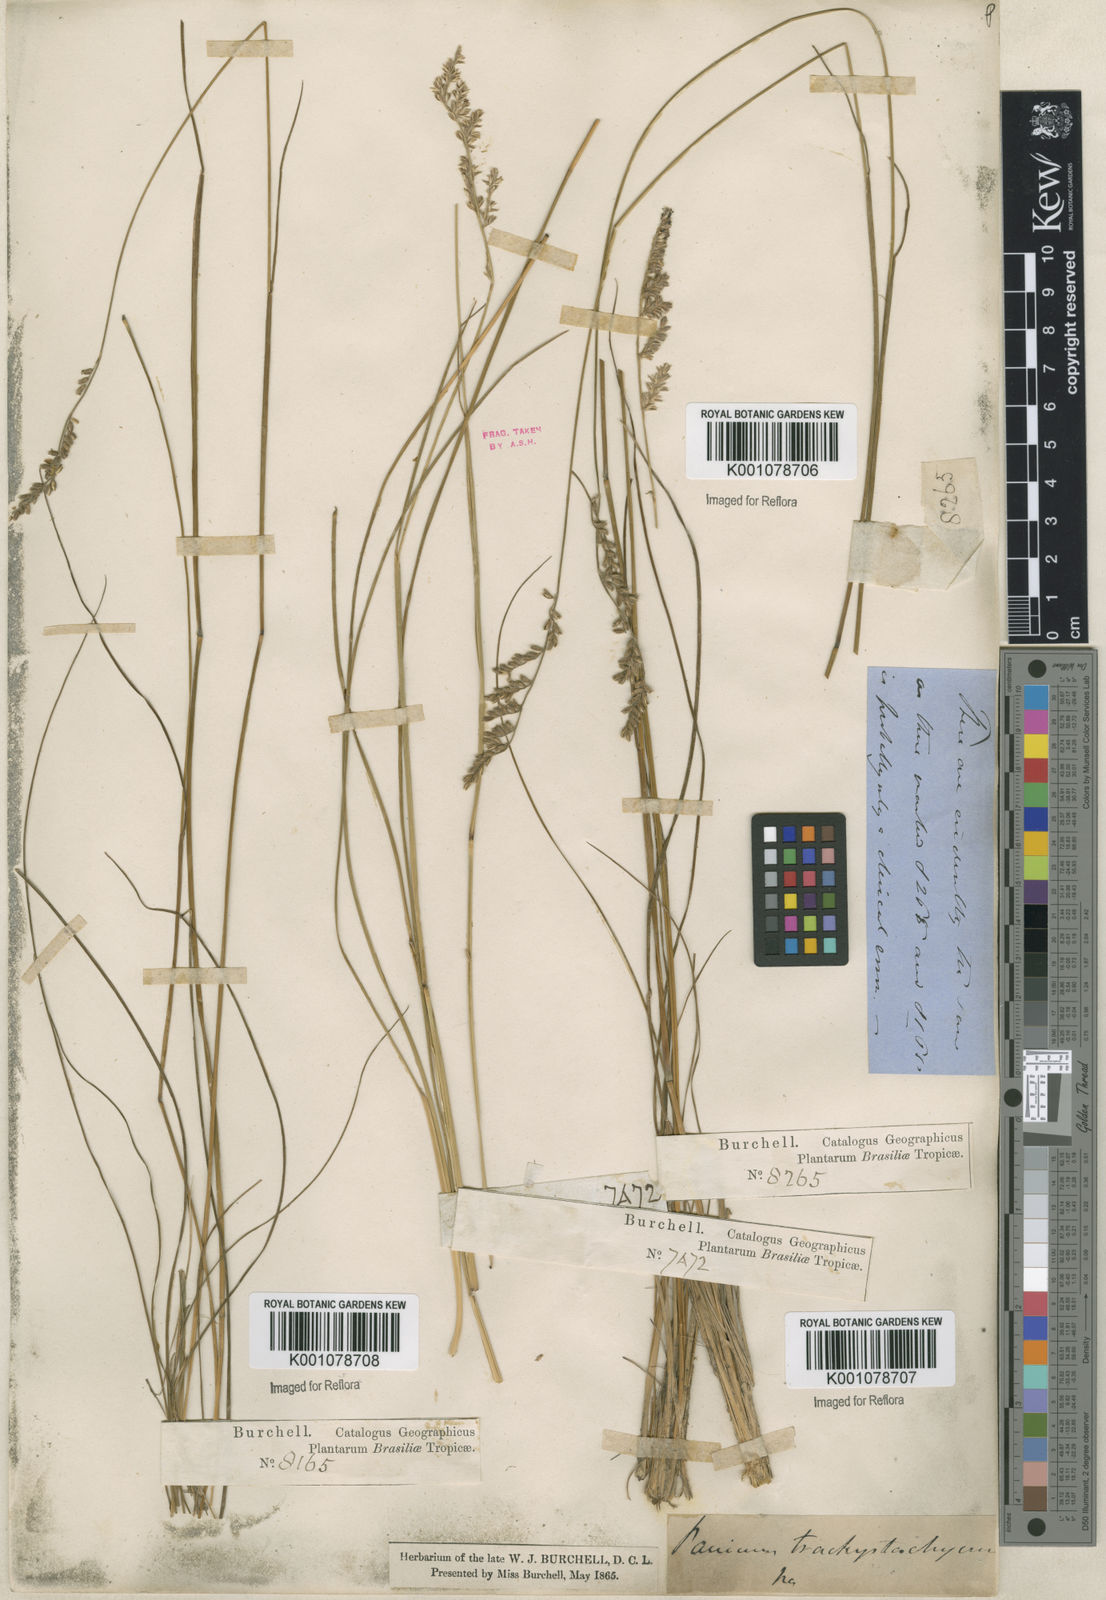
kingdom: Plantae
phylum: Tracheophyta
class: Liliopsida
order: Poales
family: Poaceae
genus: Anthaenantiopsis
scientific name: Anthaenantiopsis trachystachya
